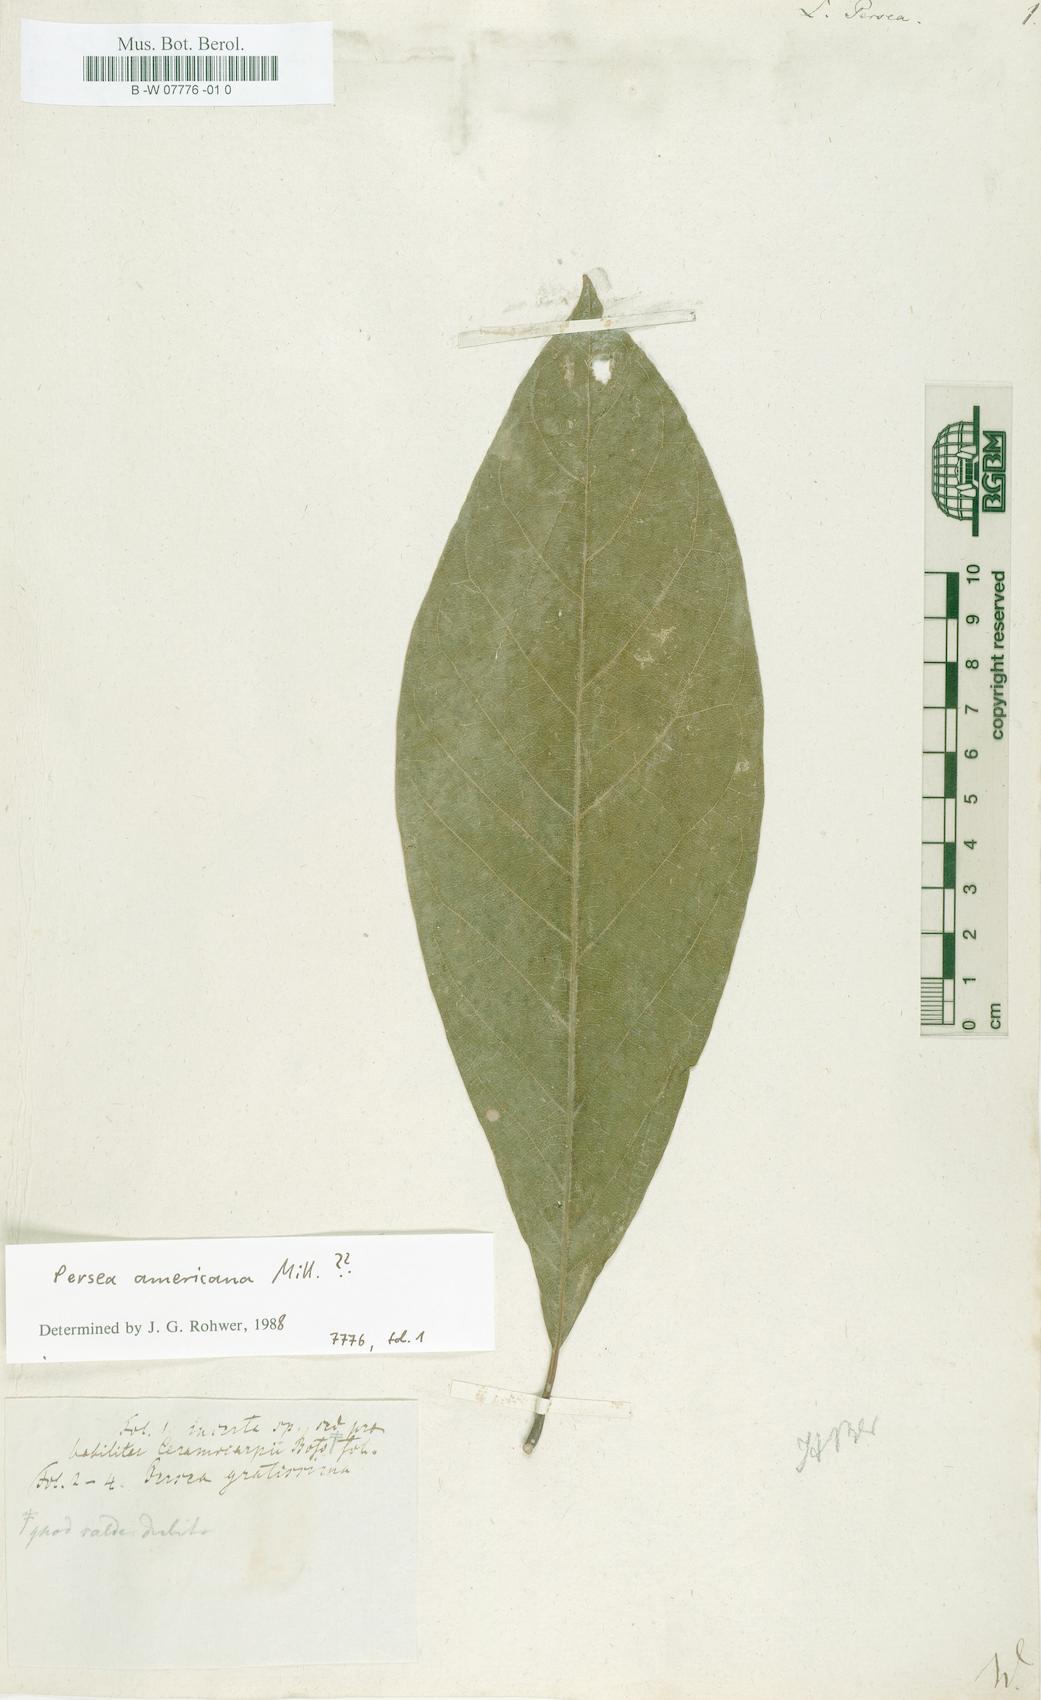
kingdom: Plantae
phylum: Tracheophyta
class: Magnoliopsida
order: Laurales
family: Lauraceae
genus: Persea
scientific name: Persea americana
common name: Avocado
